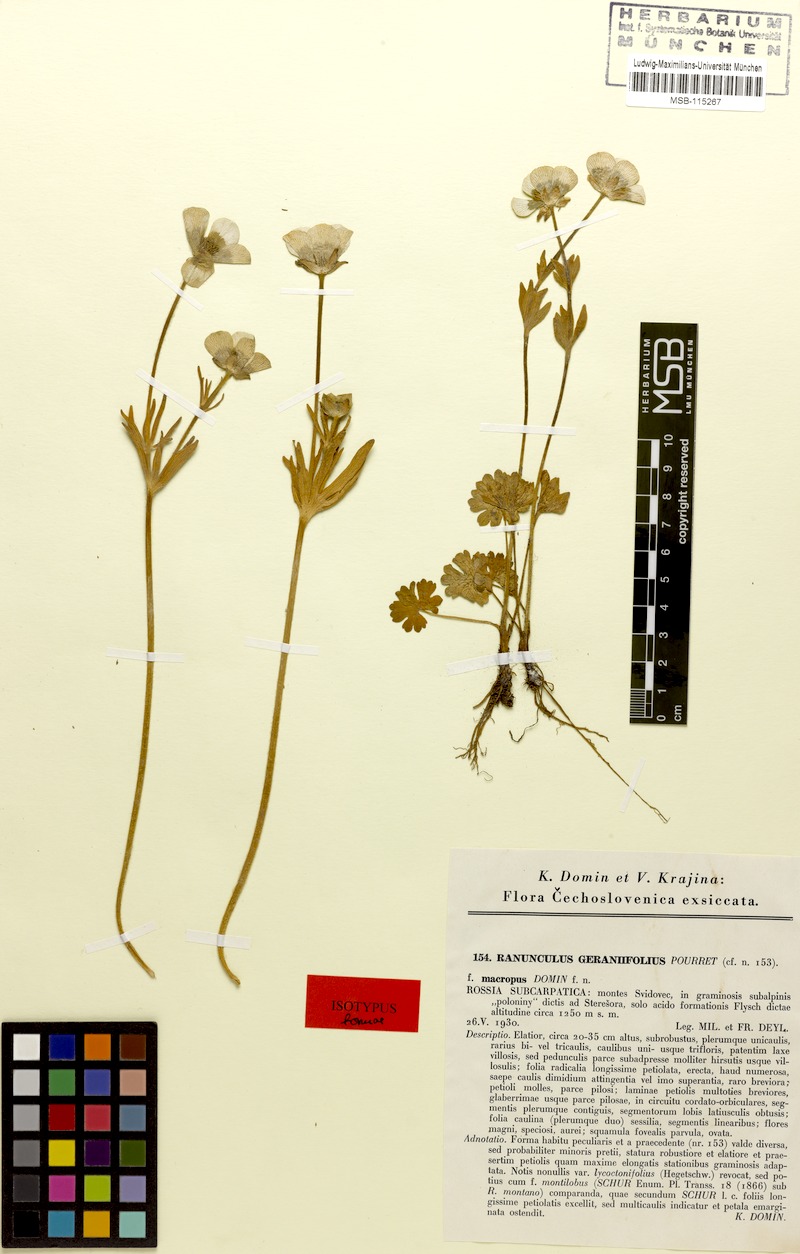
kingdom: Plantae
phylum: Tracheophyta
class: Magnoliopsida
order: Ranunculales
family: Ranunculaceae
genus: Ranunculus
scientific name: Ranunculus montanus
